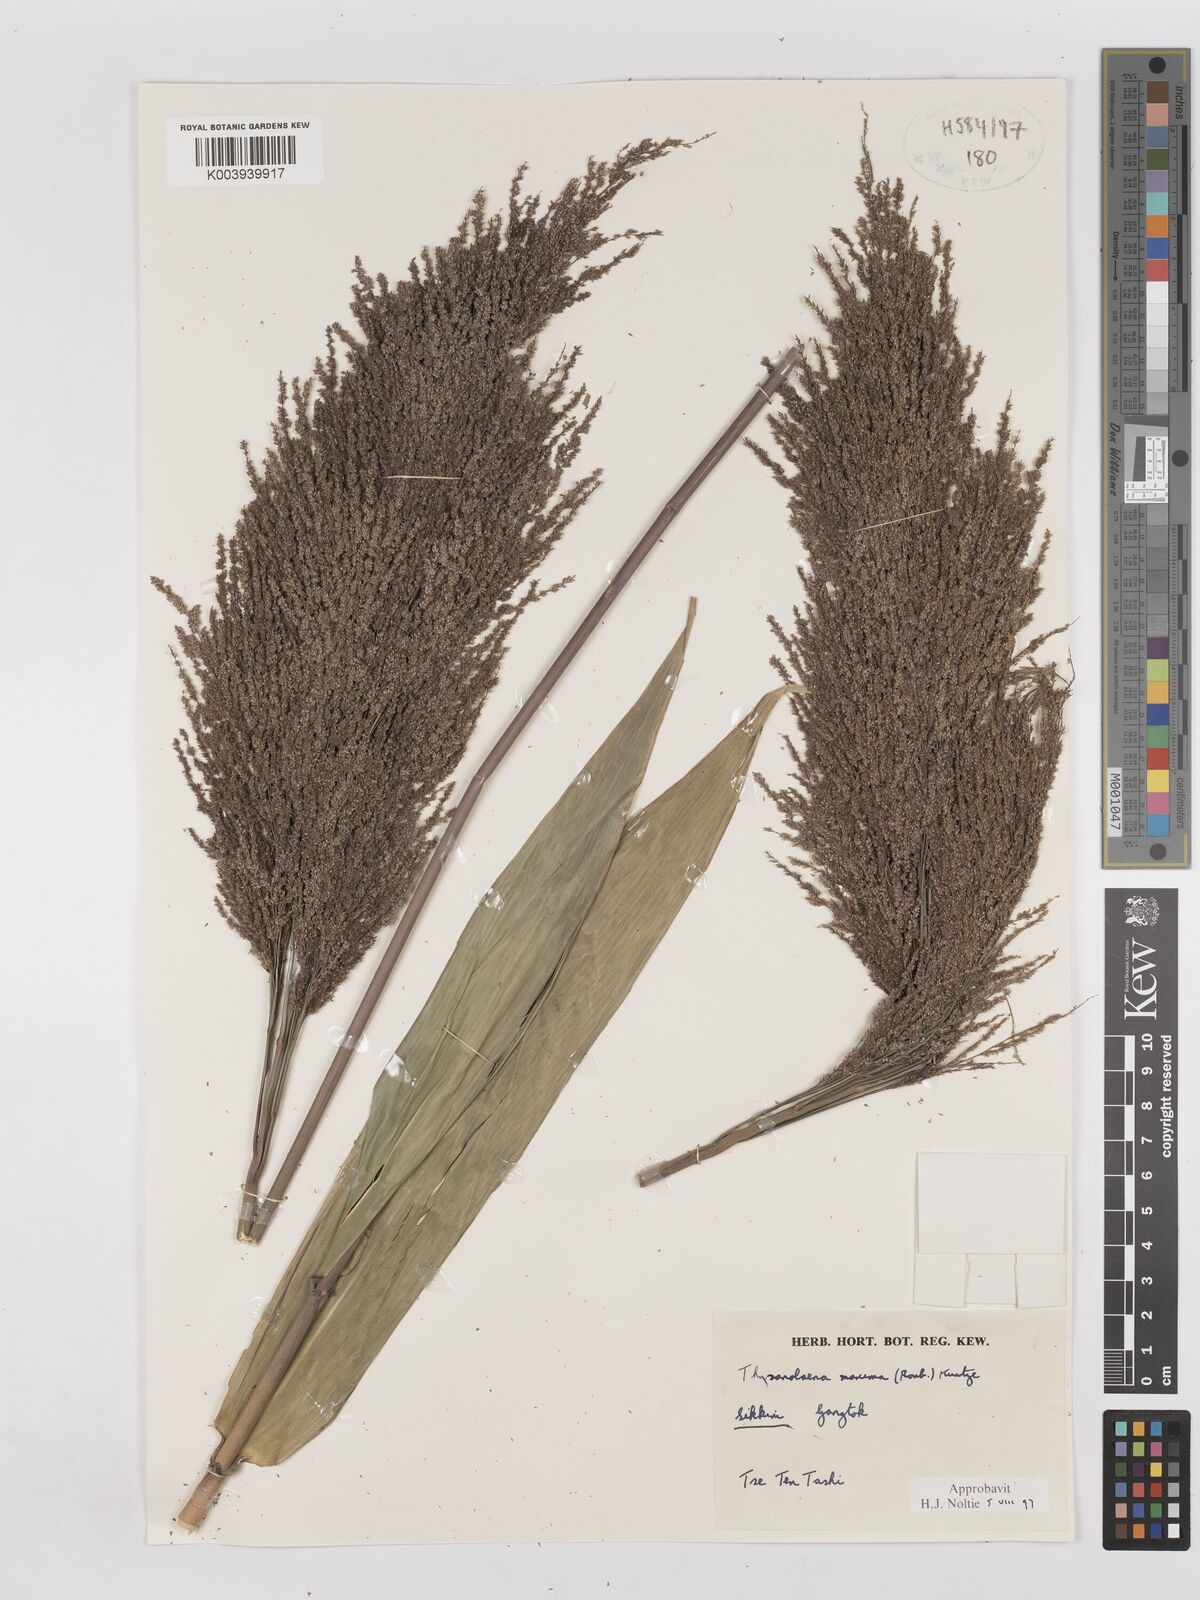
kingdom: Plantae
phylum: Tracheophyta
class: Liliopsida
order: Poales
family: Poaceae
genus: Thysanolaena
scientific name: Thysanolaena latifolia
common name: Tiger grass
